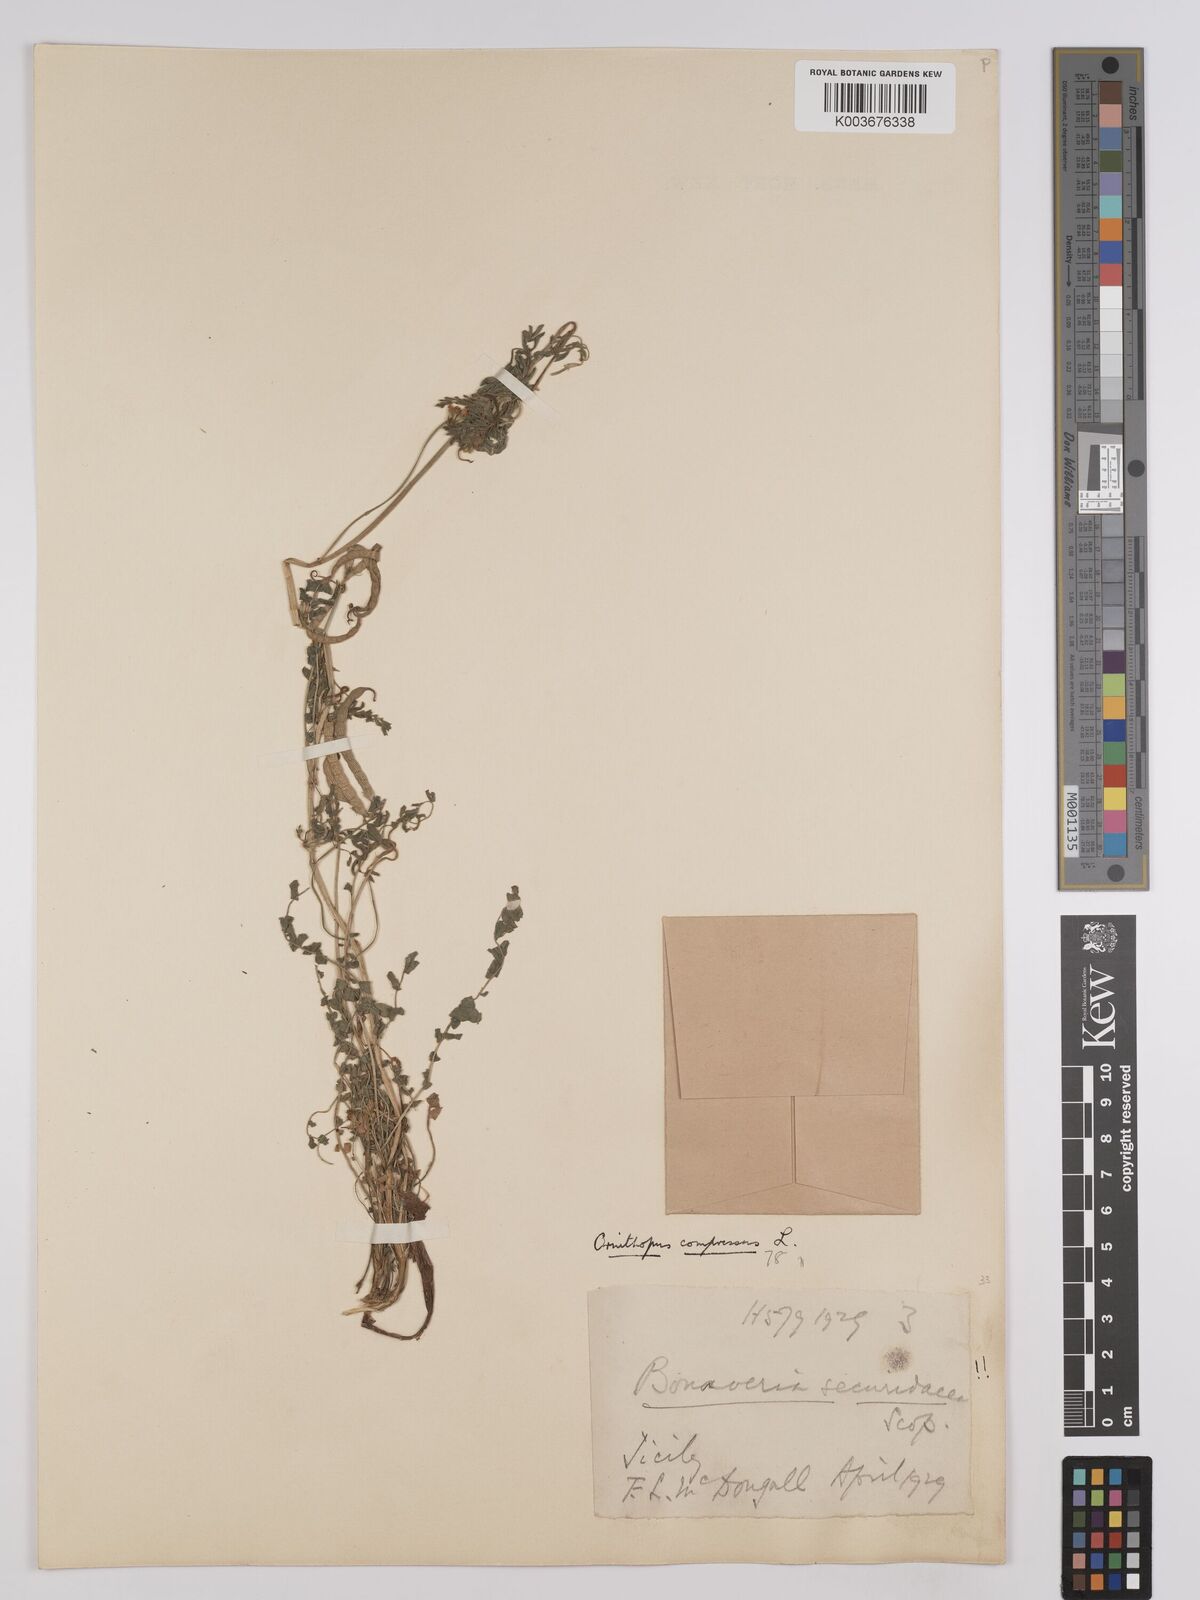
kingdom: Plantae
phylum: Tracheophyta
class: Magnoliopsida
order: Fabales
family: Fabaceae
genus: Ornithopus
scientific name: Ornithopus compressus
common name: Yellow serradella
